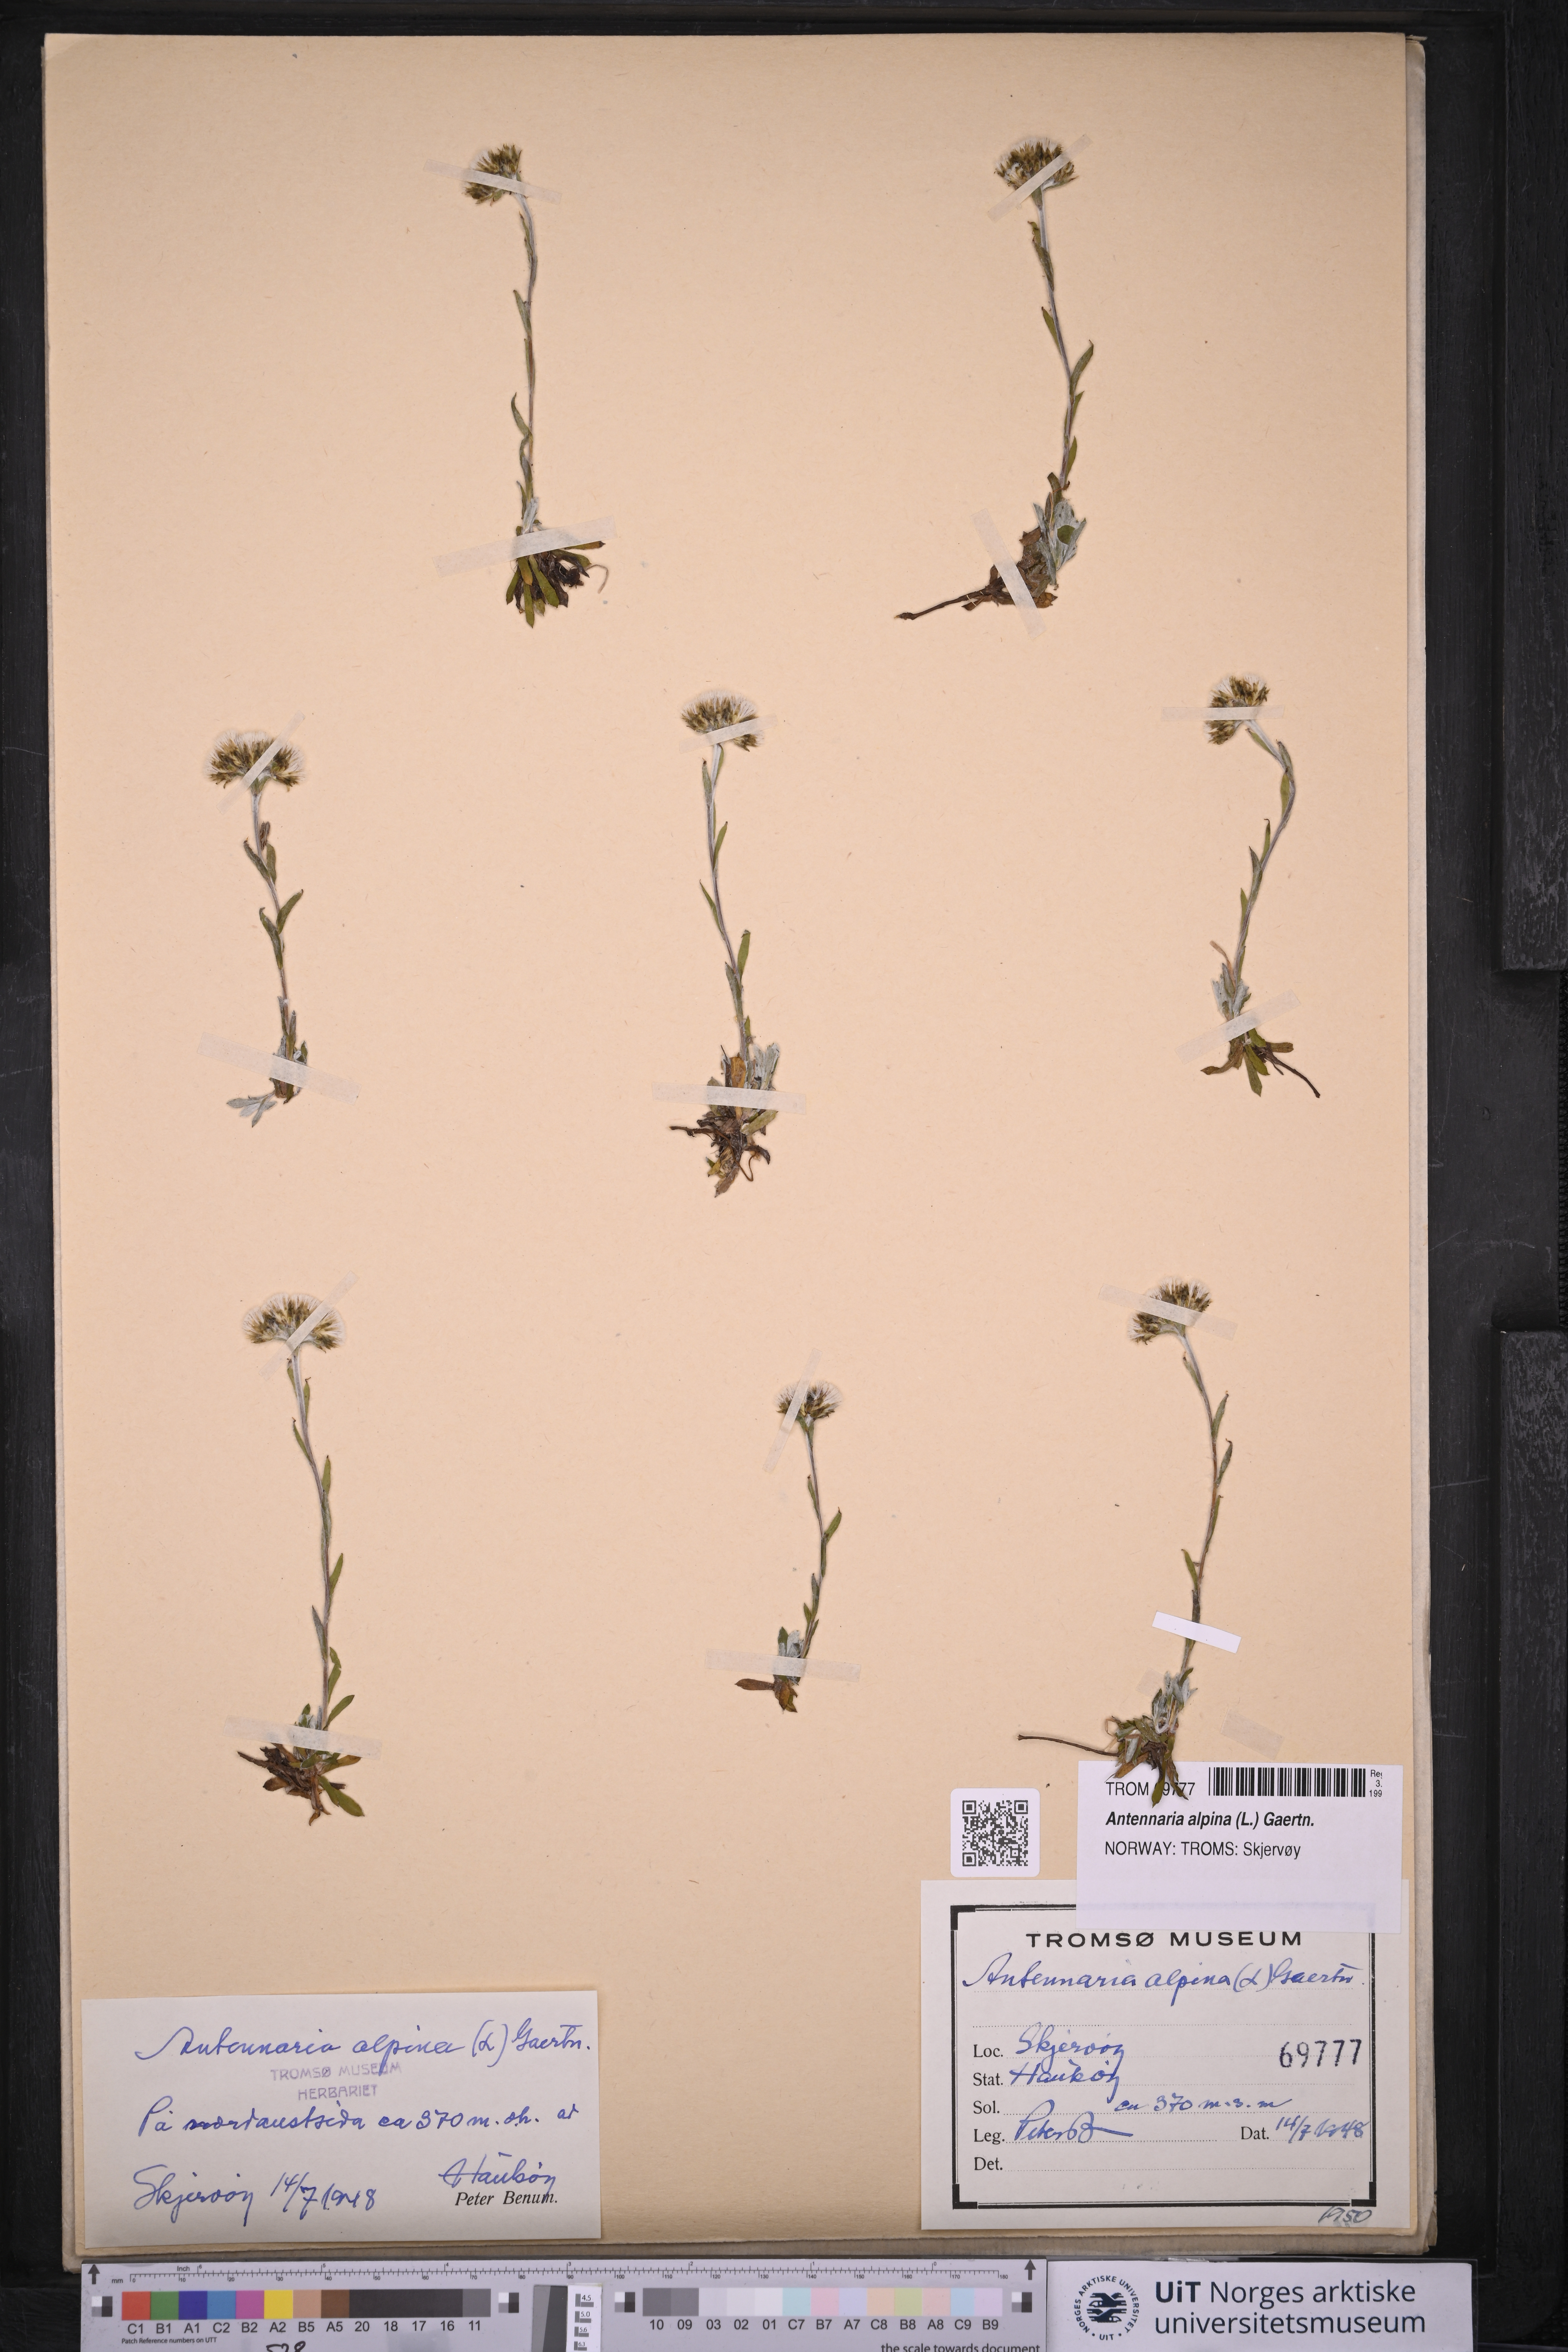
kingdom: Plantae
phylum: Tracheophyta
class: Magnoliopsida
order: Asterales
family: Asteraceae
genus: Antennaria
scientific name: Antennaria alpina
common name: Alpine pussytoes
